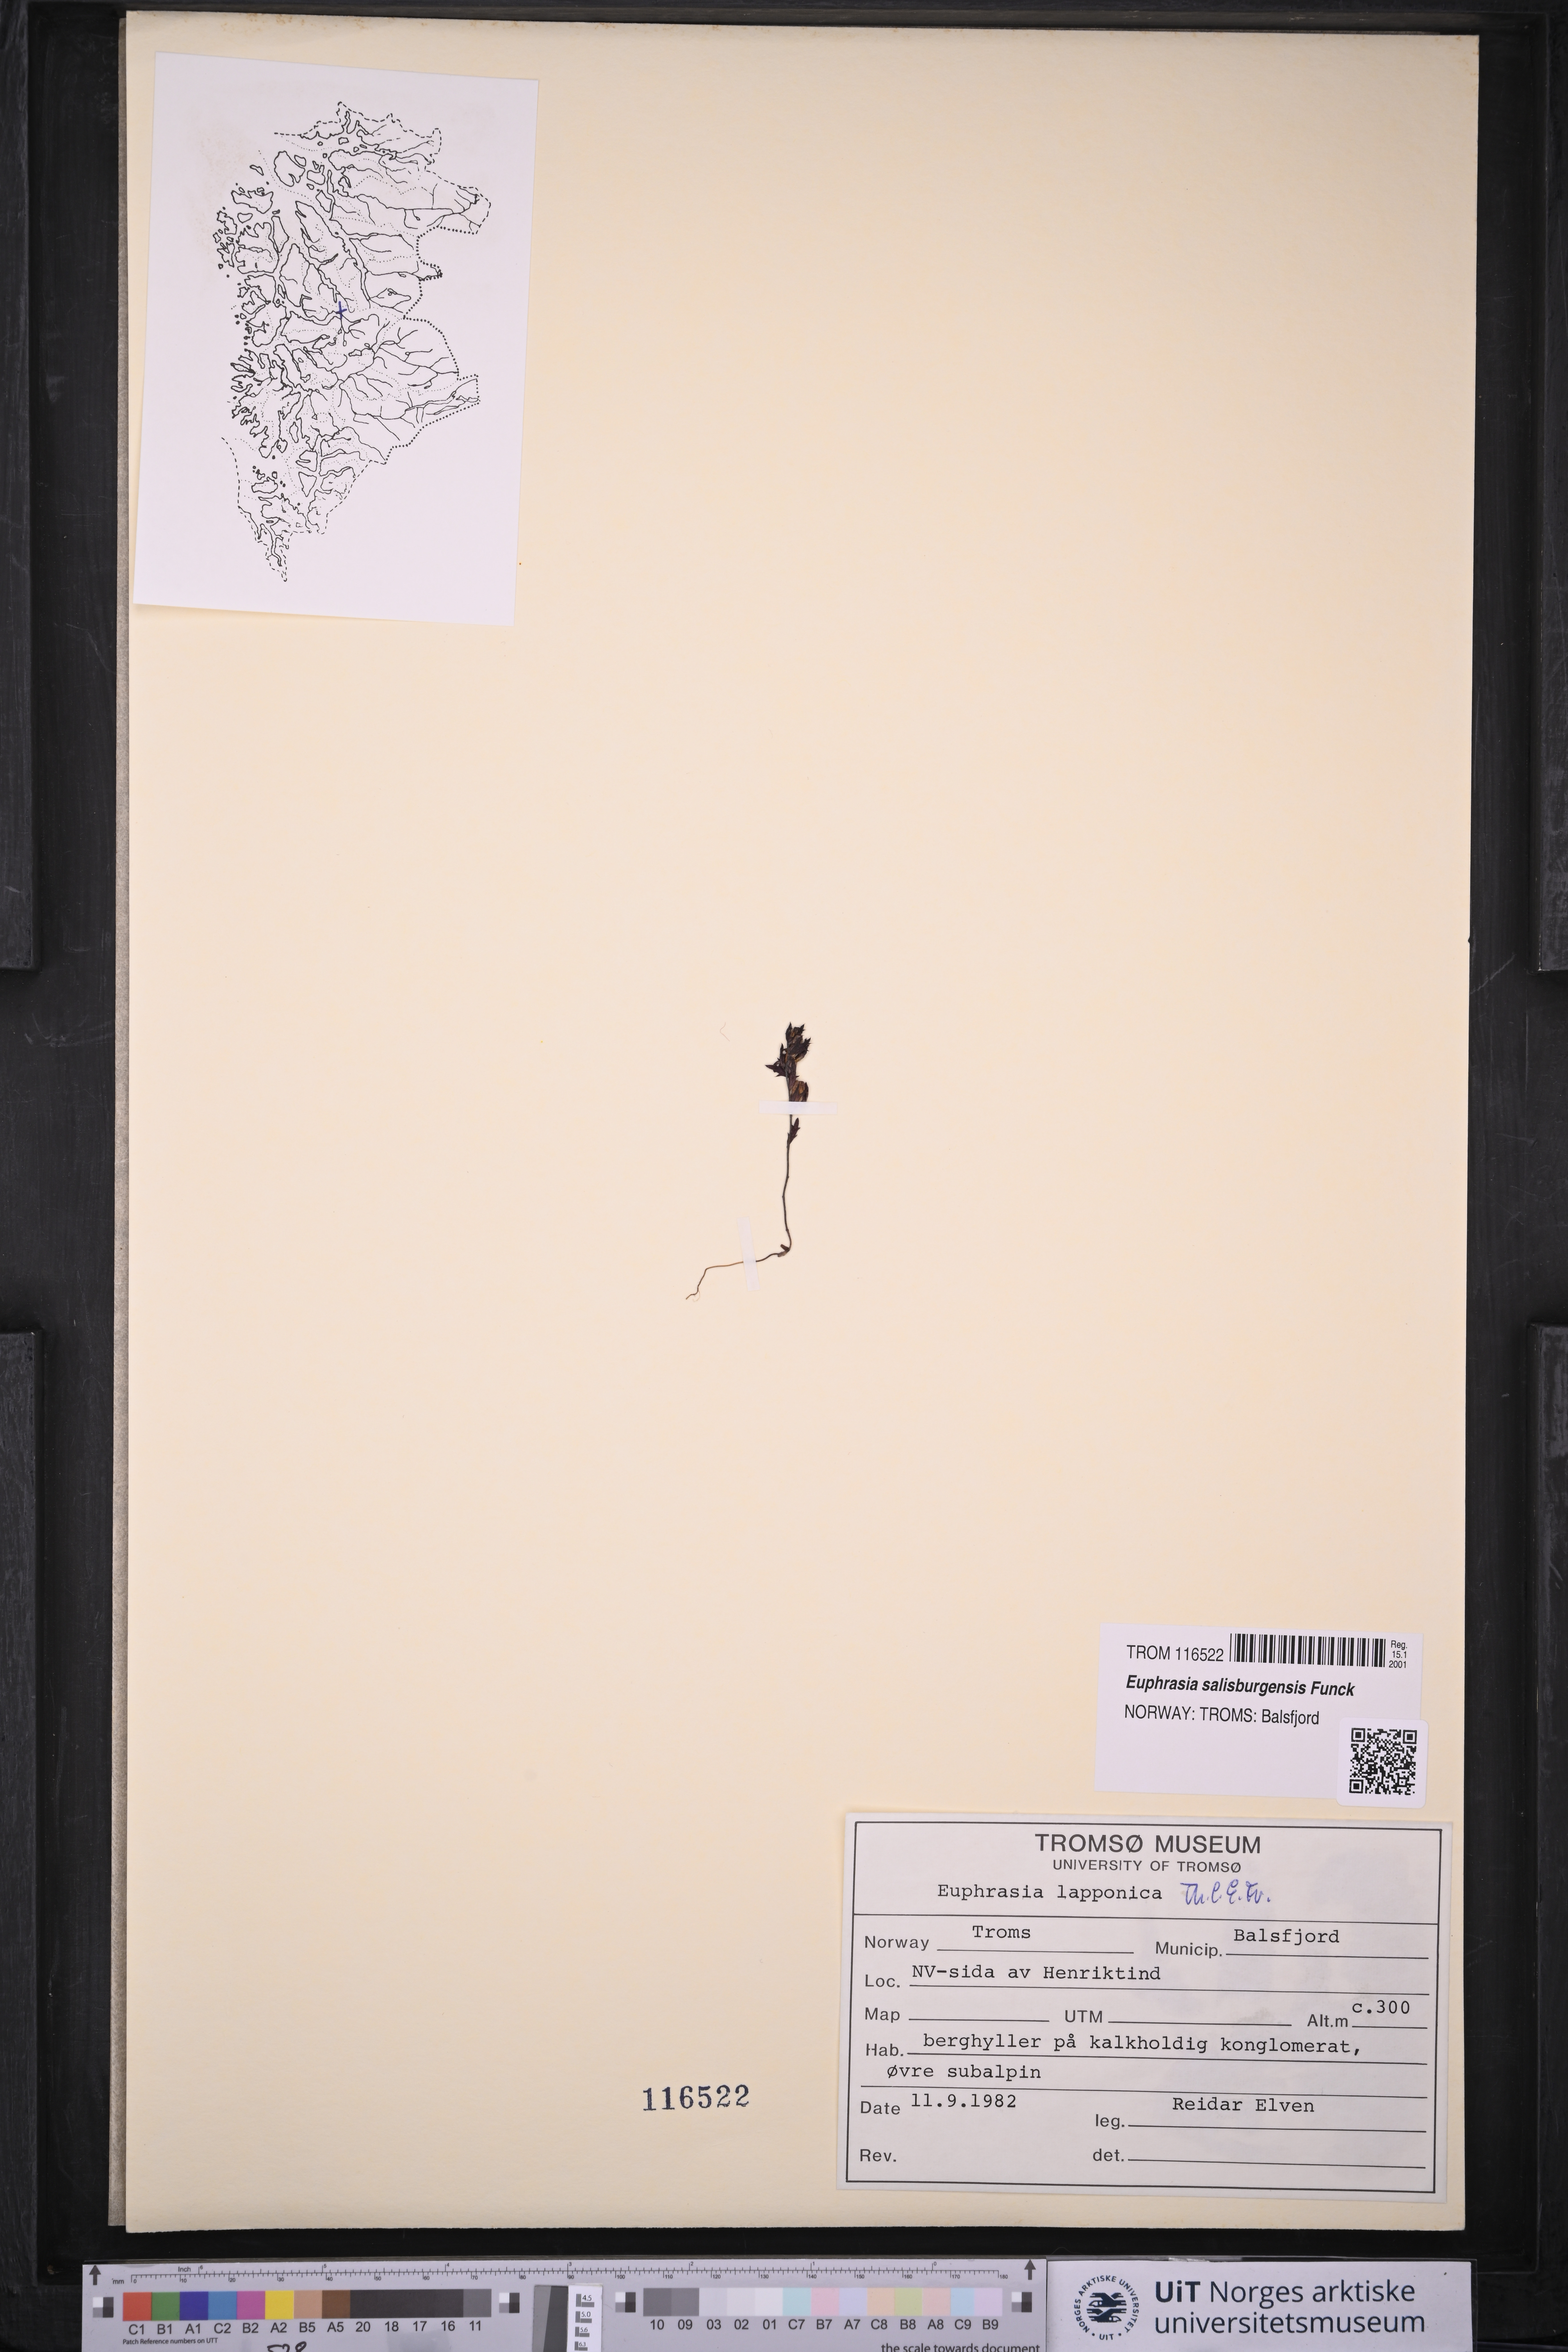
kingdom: Plantae
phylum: Tracheophyta
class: Magnoliopsida
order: Lamiales
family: Orobanchaceae
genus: Euphrasia
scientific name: Euphrasia salisburgensis
